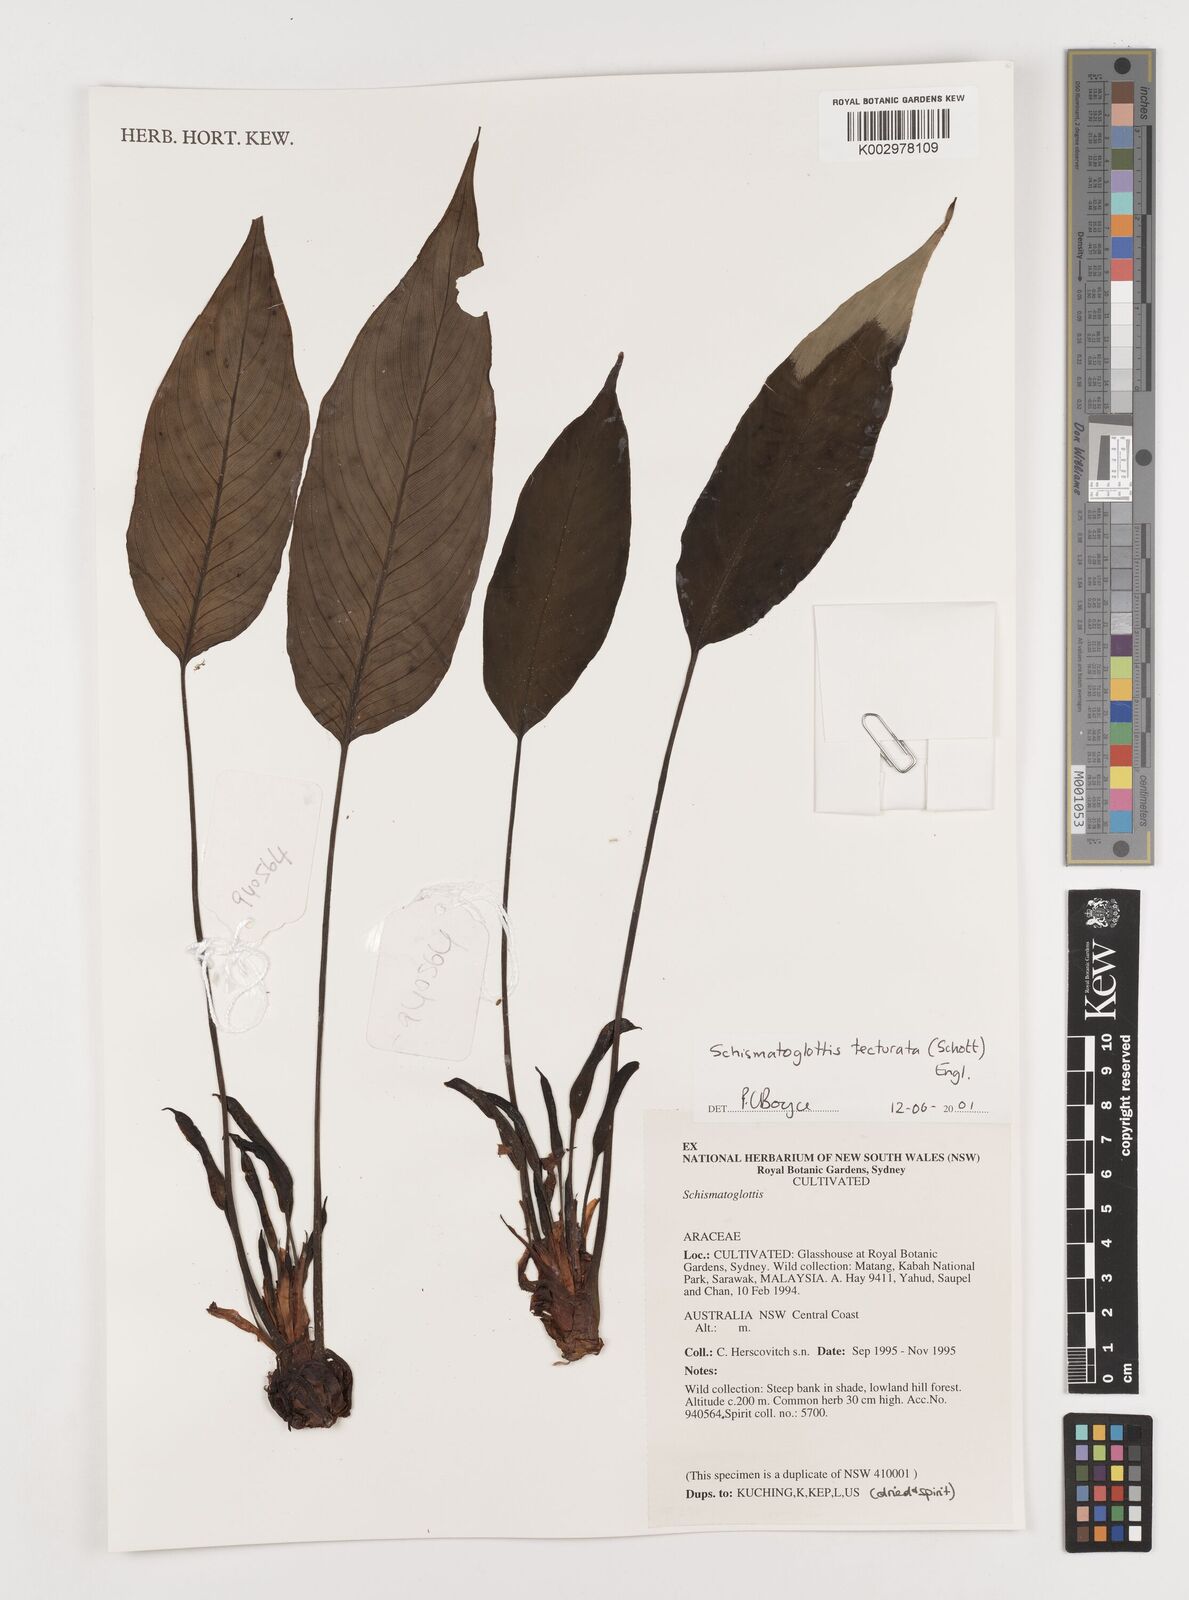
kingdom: Plantae
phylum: Tracheophyta
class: Liliopsida
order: Zingiberales
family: Costaceae
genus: Colobogynium
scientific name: Colobogynium variegatum
